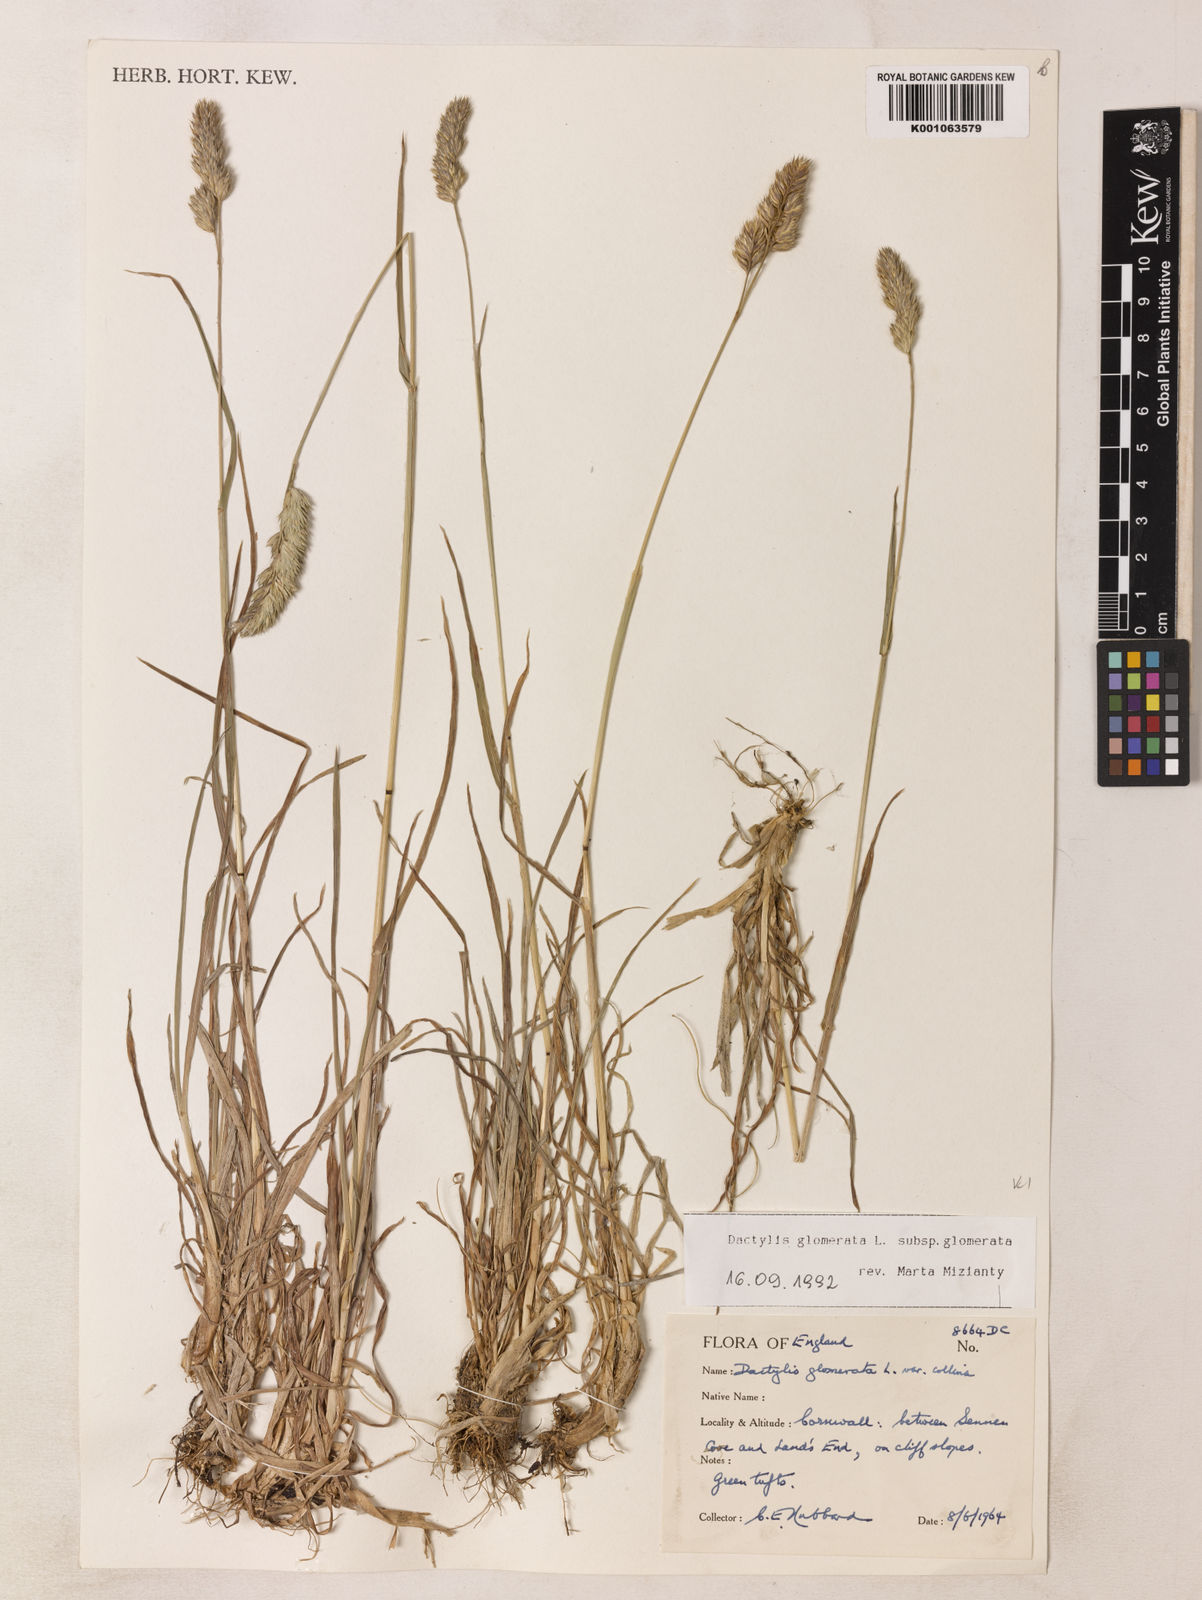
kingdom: Plantae
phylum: Tracheophyta
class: Liliopsida
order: Poales
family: Poaceae
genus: Dactylis
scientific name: Dactylis glomerata
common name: Orchardgrass
